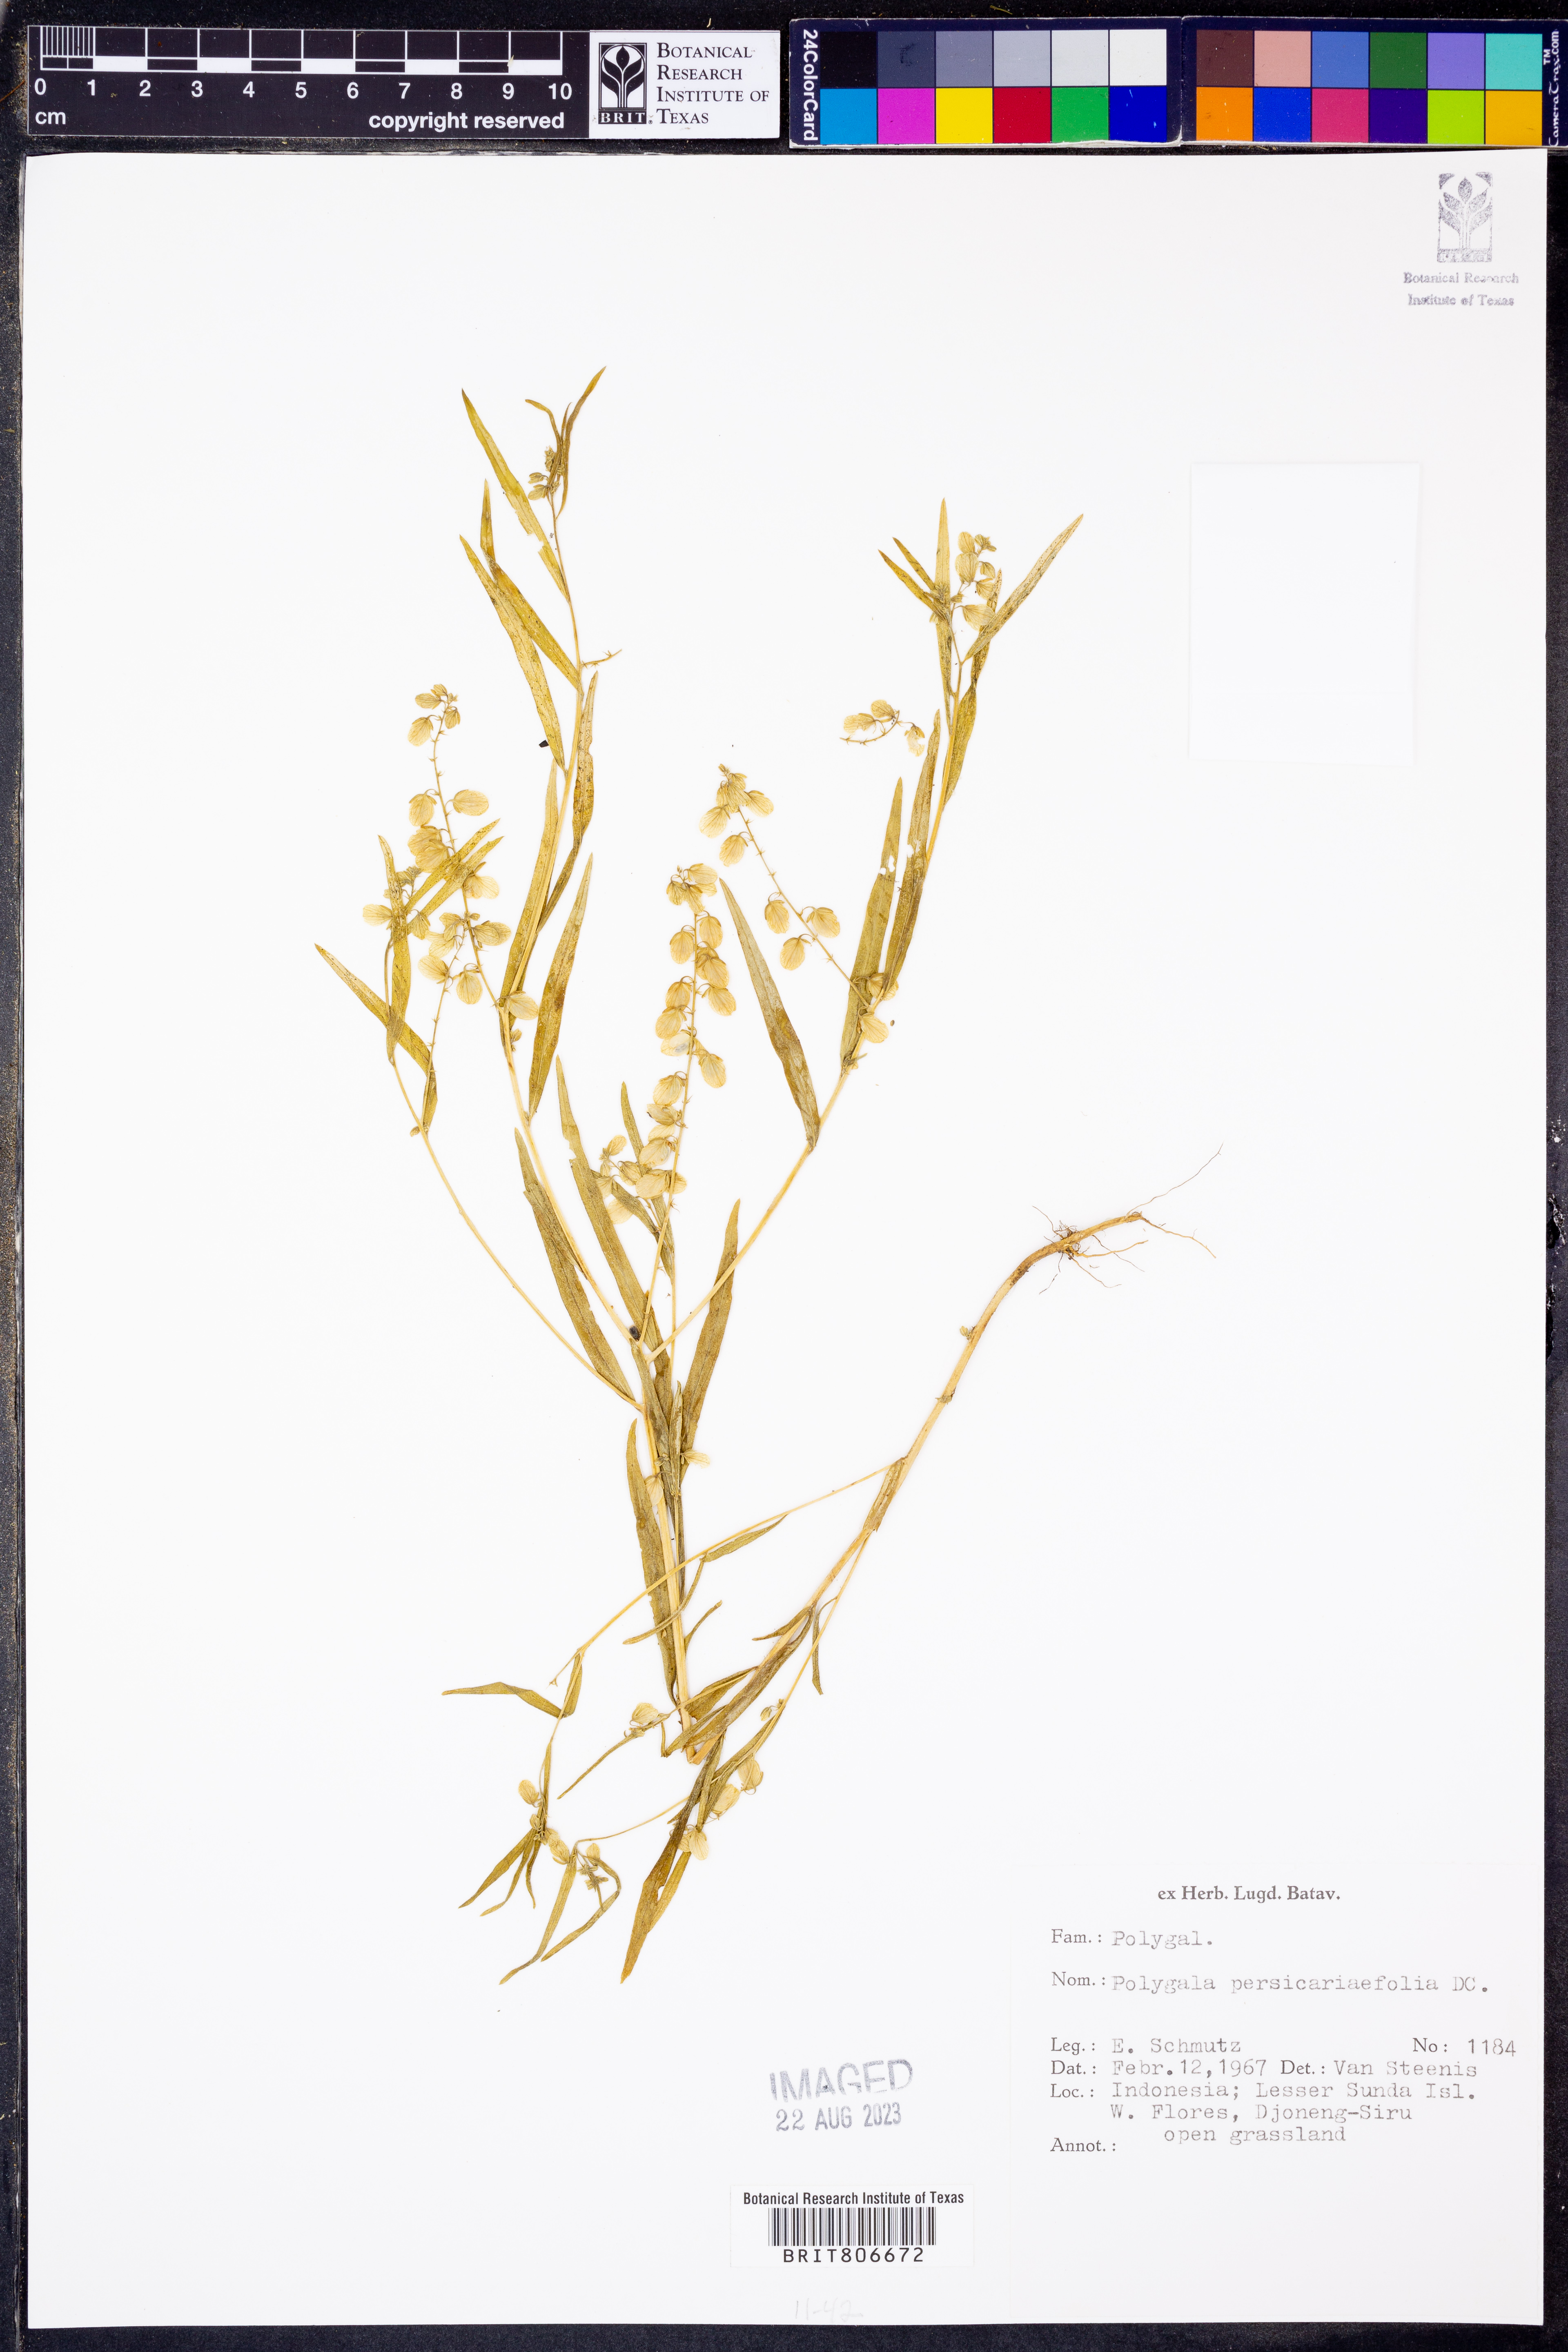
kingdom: Plantae
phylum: Tracheophyta
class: Magnoliopsida
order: Fabales
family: Polygalaceae
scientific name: Polygalaceae
